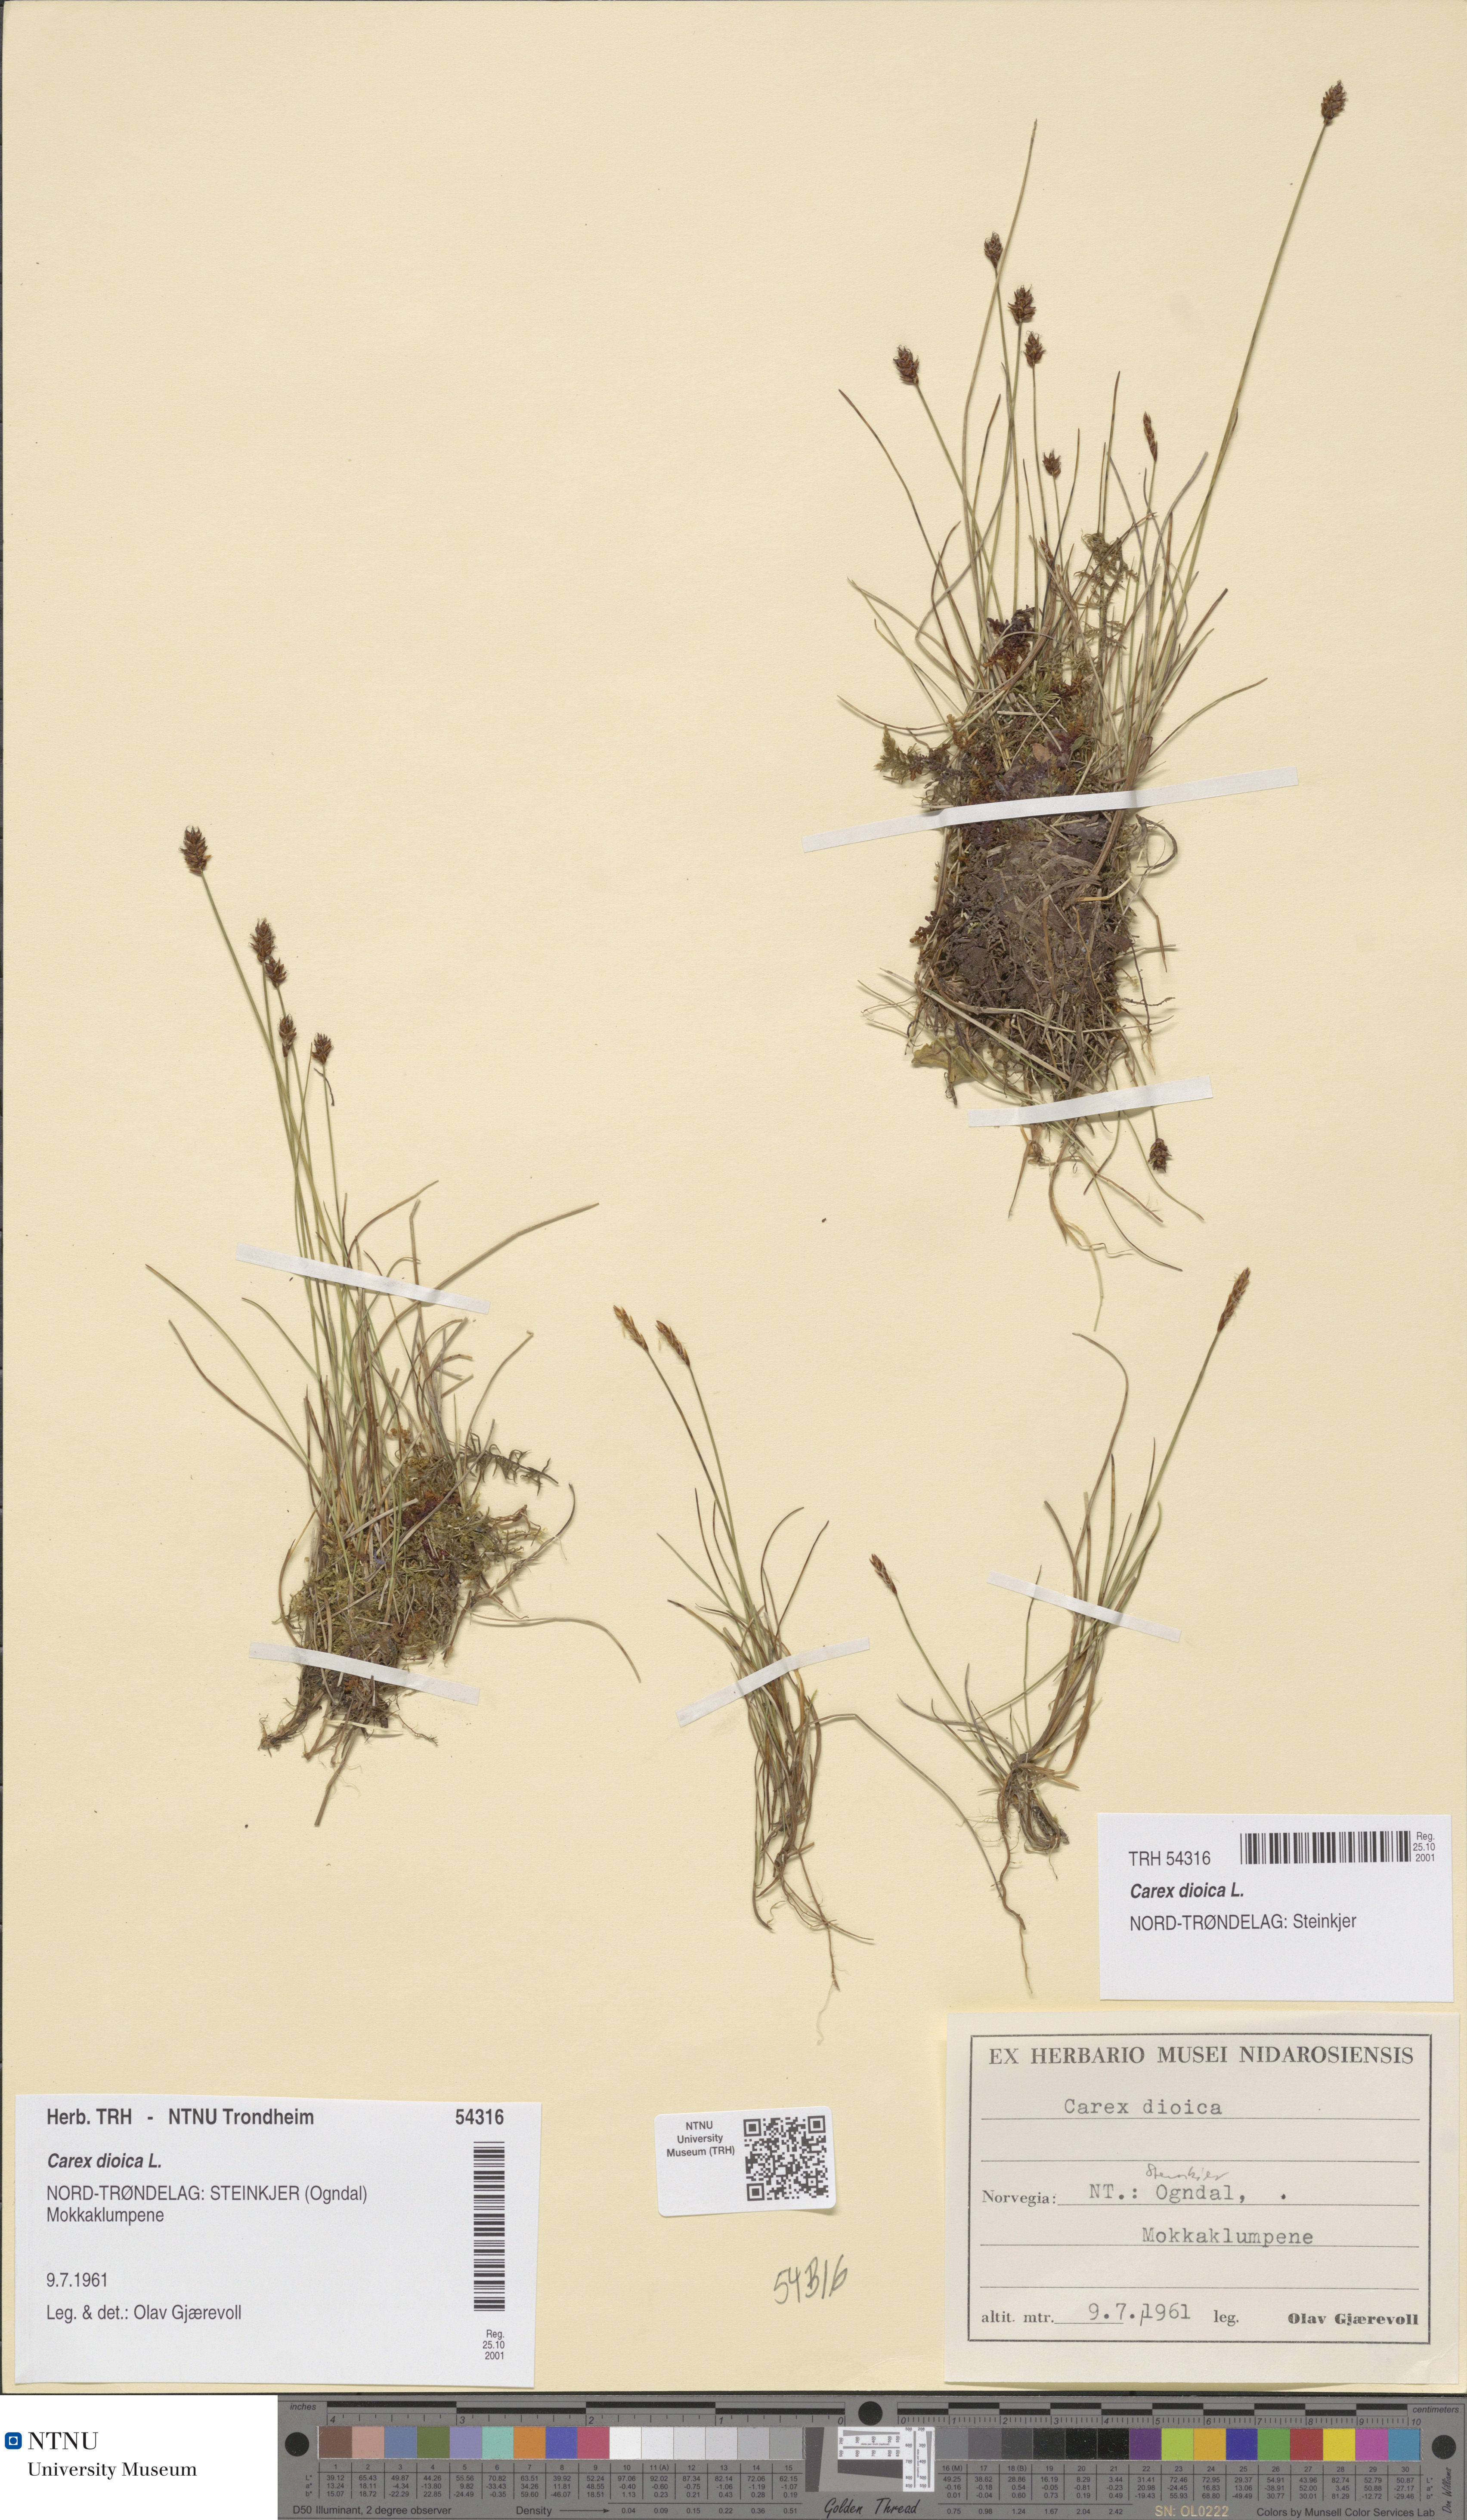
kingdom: Plantae
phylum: Tracheophyta
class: Liliopsida
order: Poales
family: Cyperaceae
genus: Carex
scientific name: Carex dioica
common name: Dioecious sedge
